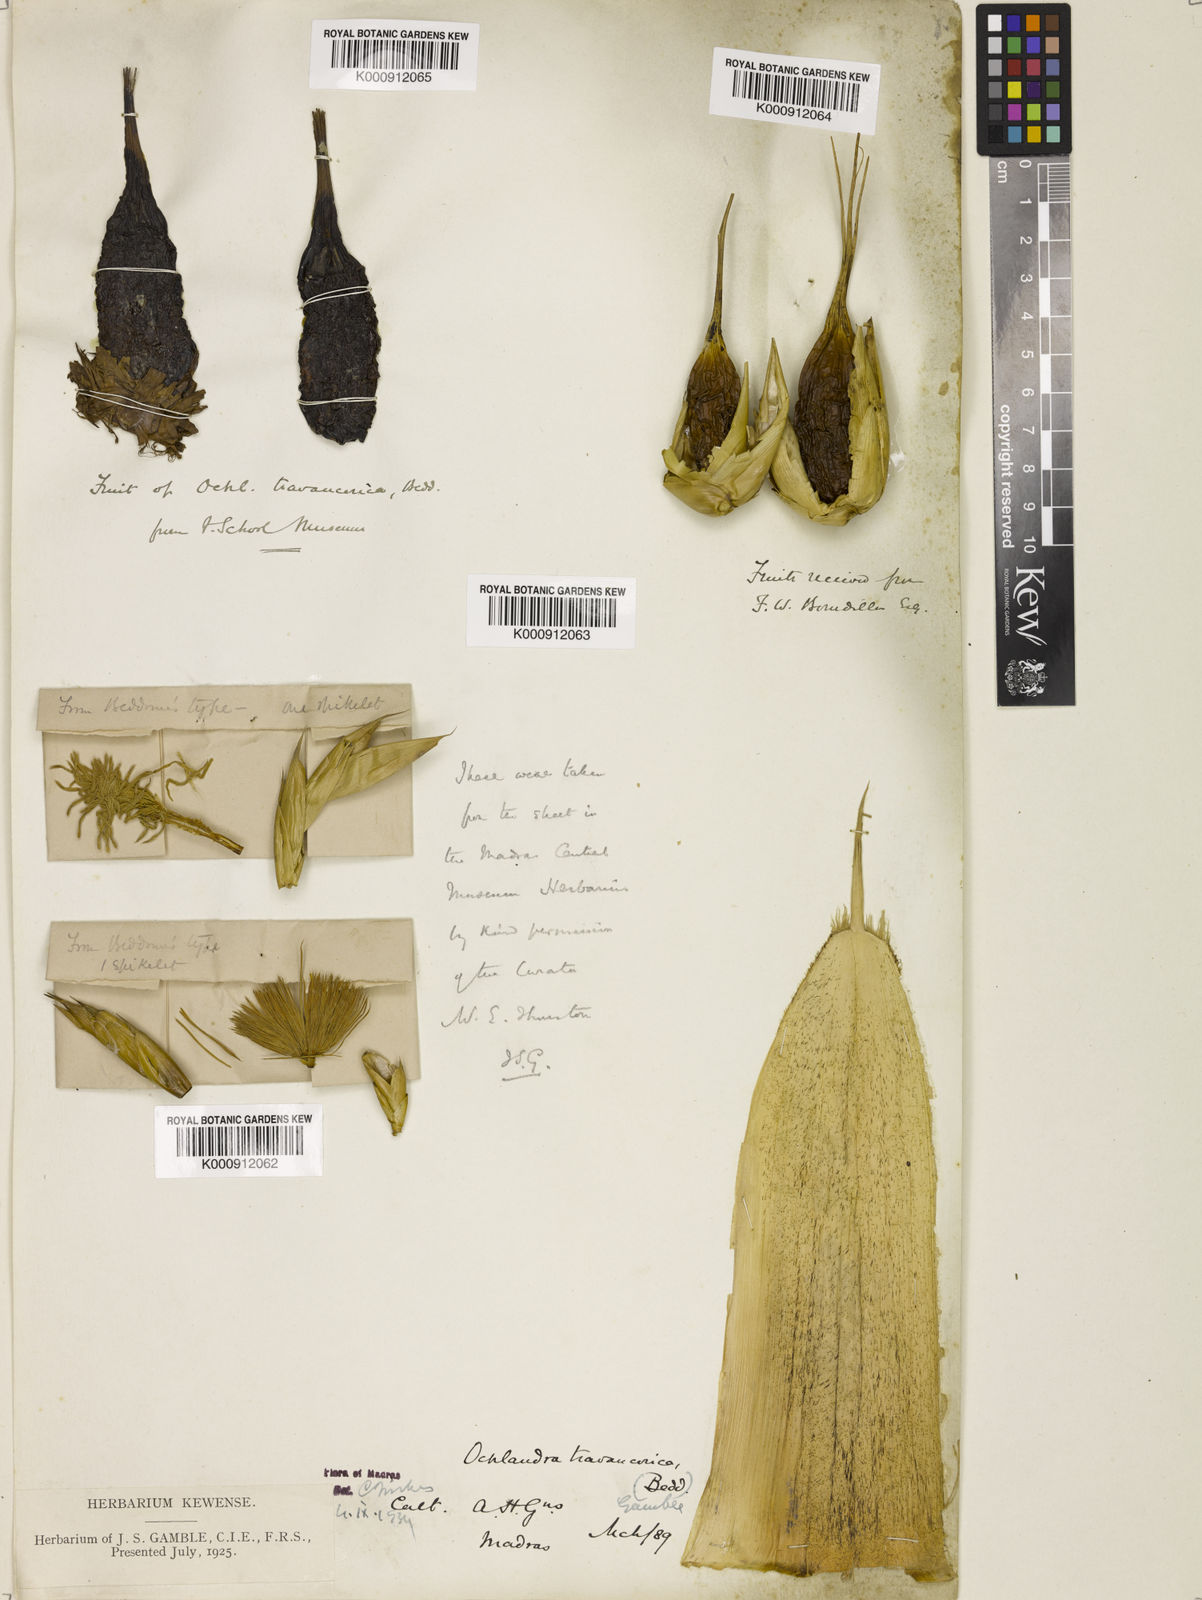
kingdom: Plantae
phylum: Tracheophyta
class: Liliopsida
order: Poales
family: Poaceae
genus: Ochlandra
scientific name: Ochlandra travancorica
